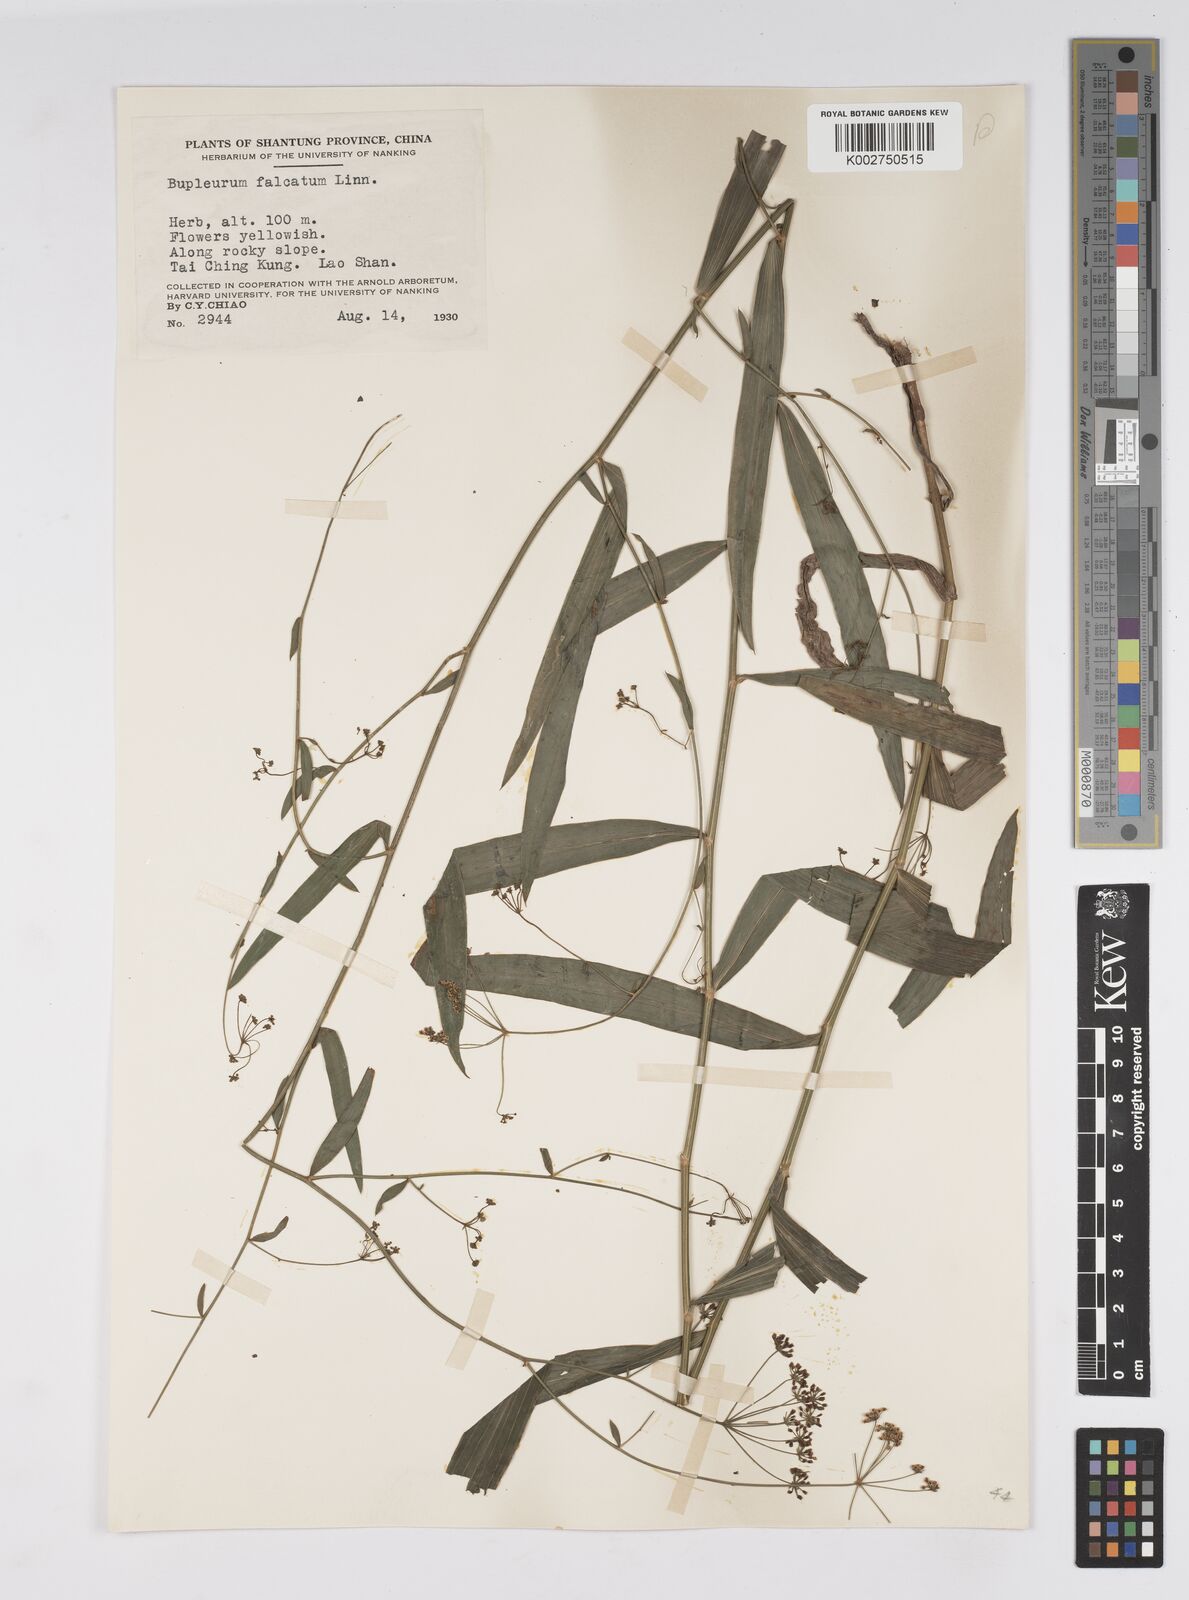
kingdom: Plantae
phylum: Tracheophyta
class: Magnoliopsida
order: Apiales
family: Apiaceae
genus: Bupleurum
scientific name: Bupleurum krylovianum
